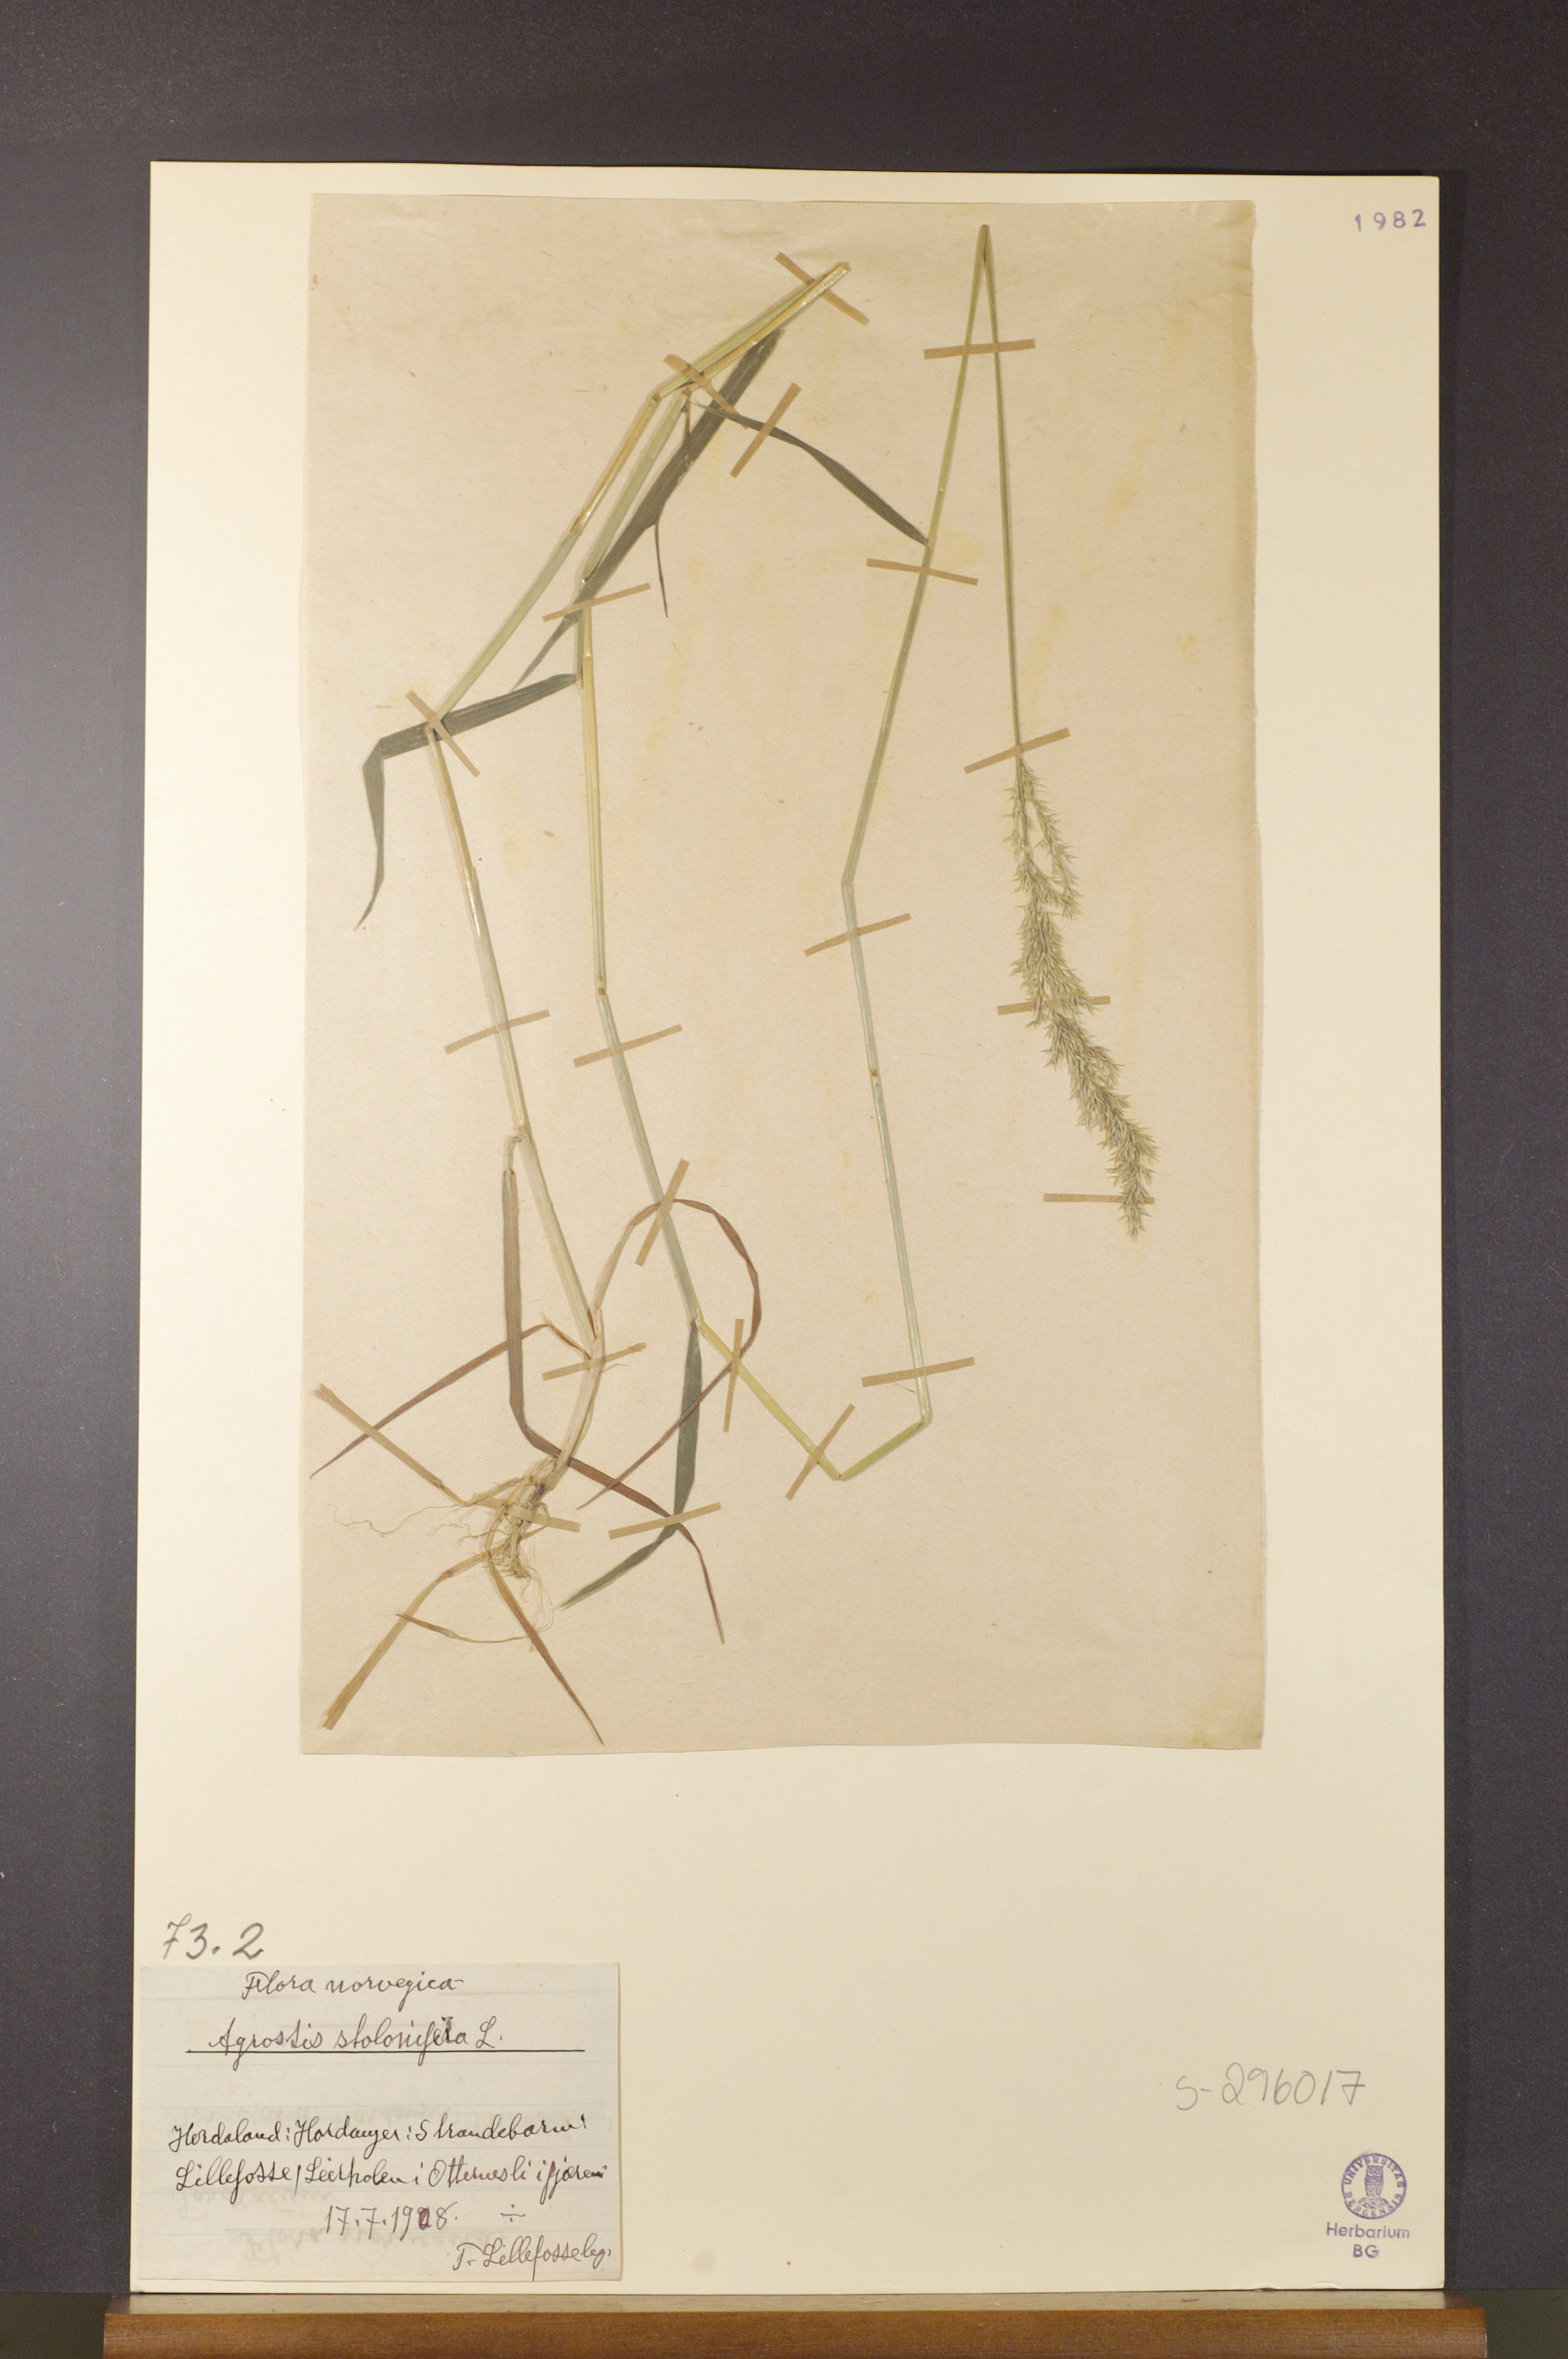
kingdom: Plantae
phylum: Tracheophyta
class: Liliopsida
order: Poales
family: Poaceae
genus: Agrostis
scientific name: Agrostis stolonifera
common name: Creeping bentgrass
